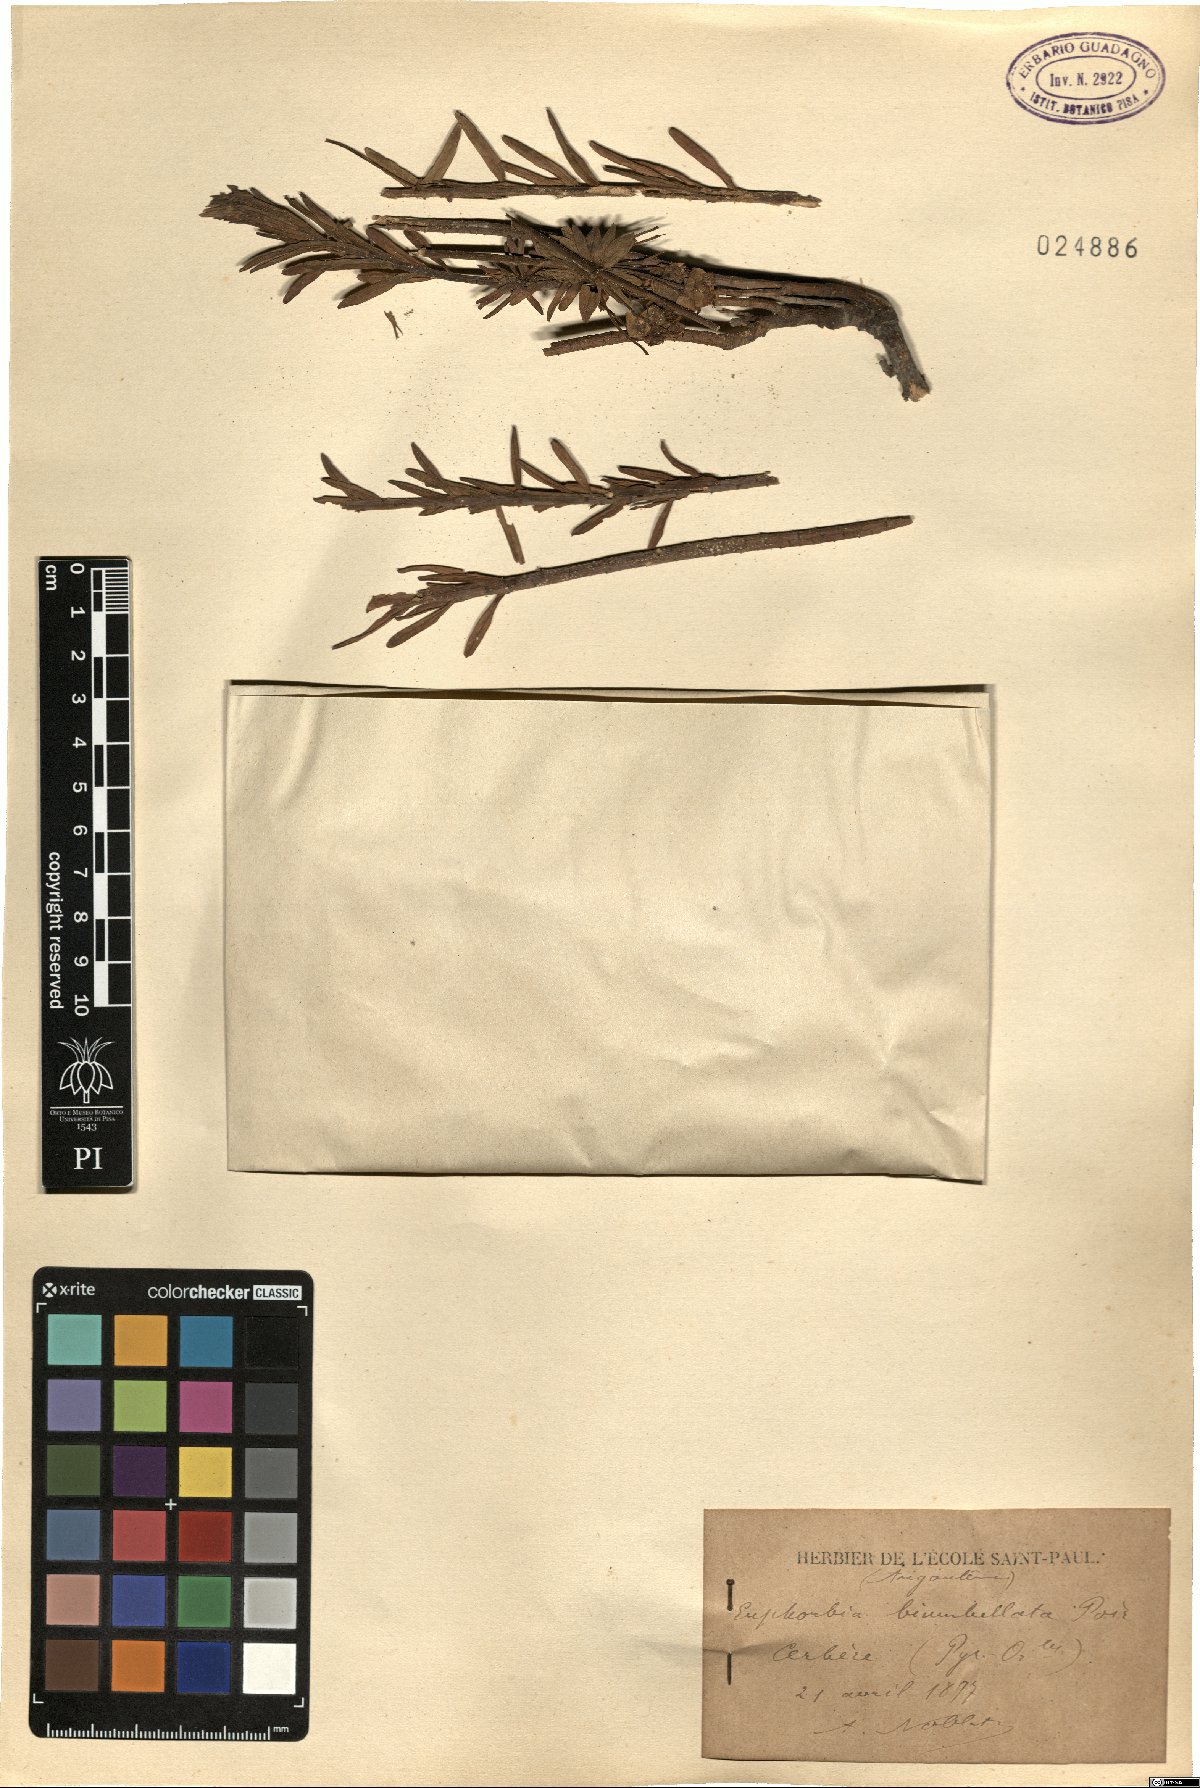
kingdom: Plantae
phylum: Tracheophyta
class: Magnoliopsida
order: Malpighiales
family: Euphorbiaceae
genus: Euphorbia
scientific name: Euphorbia biumbellata
